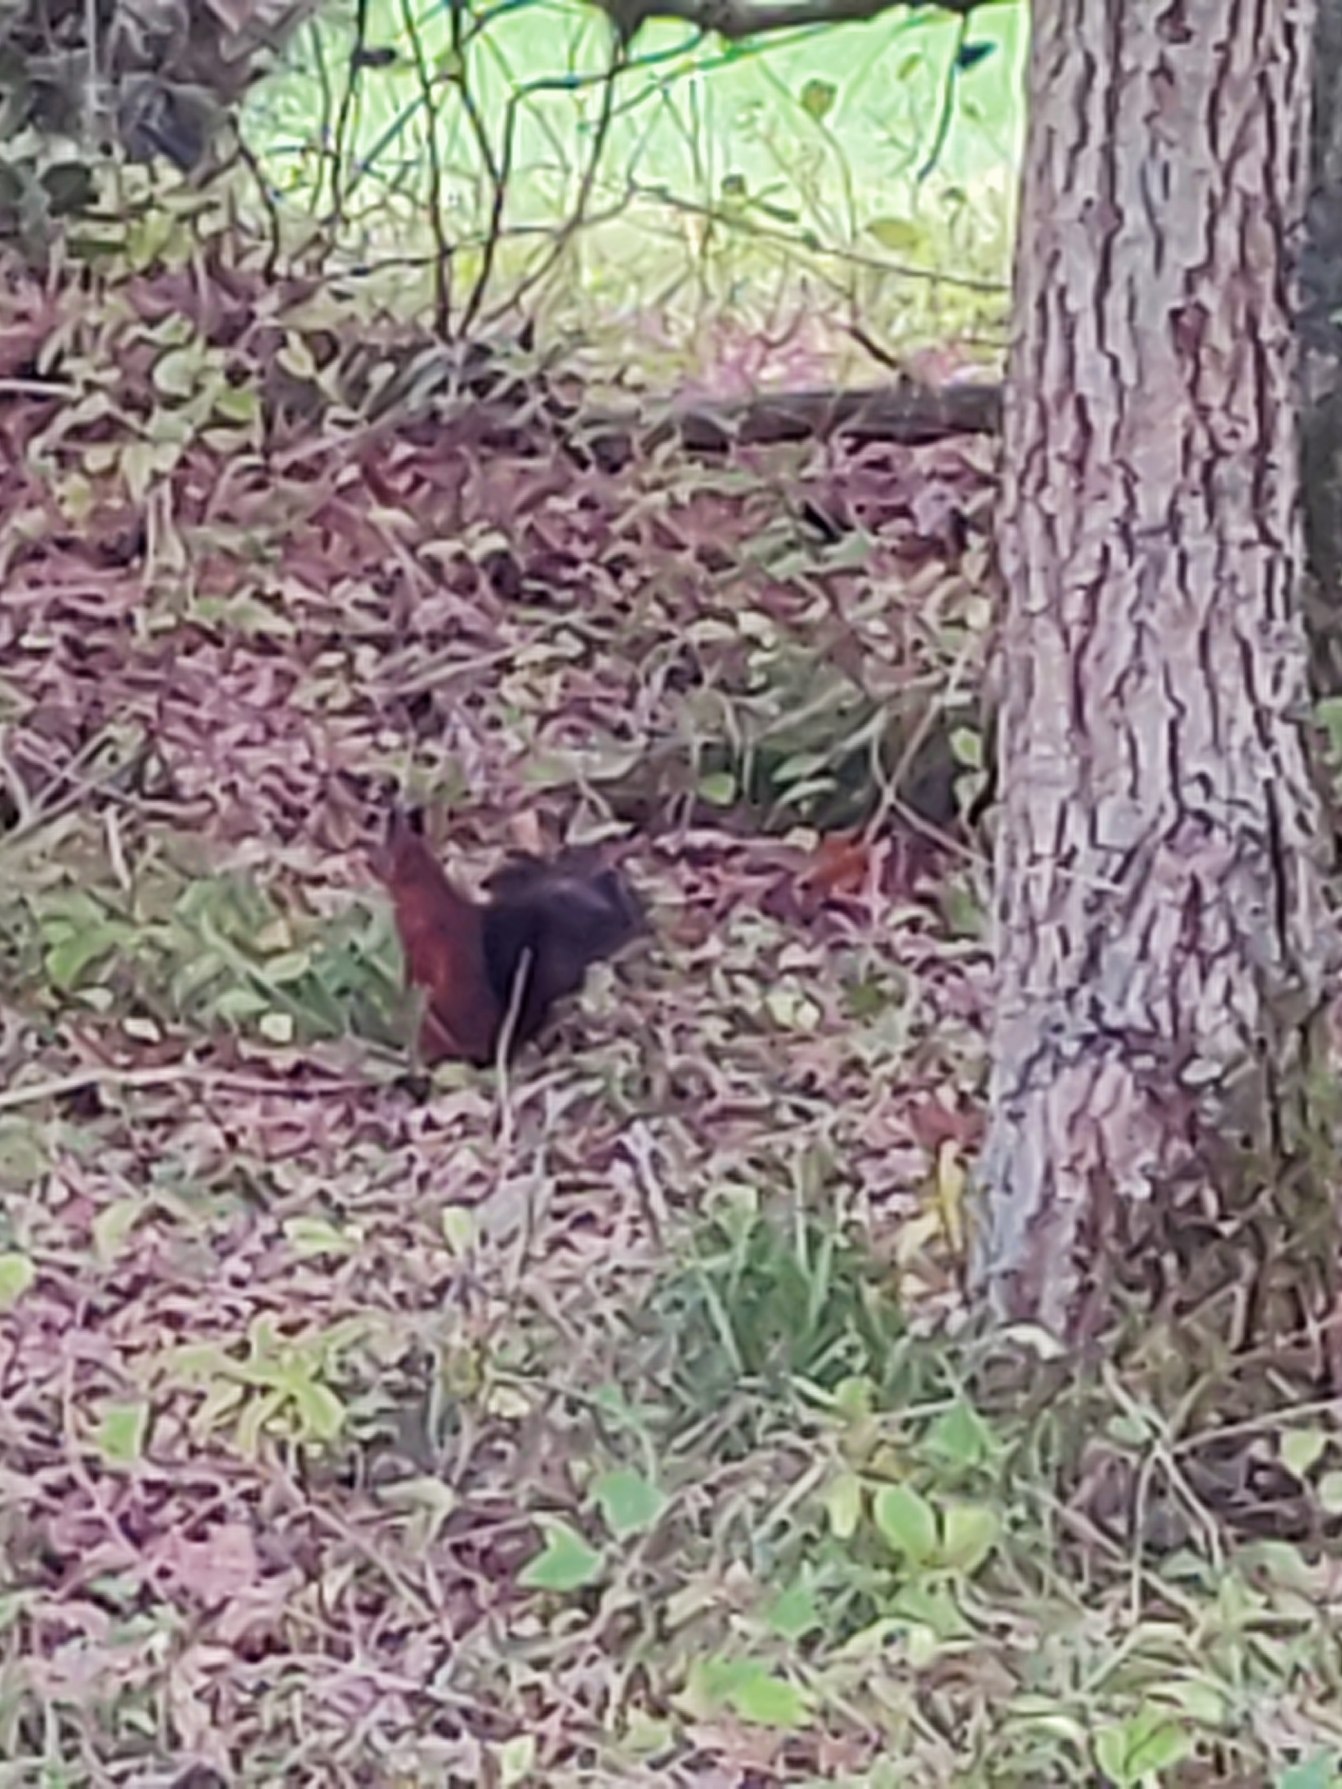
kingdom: Animalia
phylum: Chordata
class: Mammalia
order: Rodentia
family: Sciuridae
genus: Sciurus
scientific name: Sciurus vulgaris
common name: Egern
